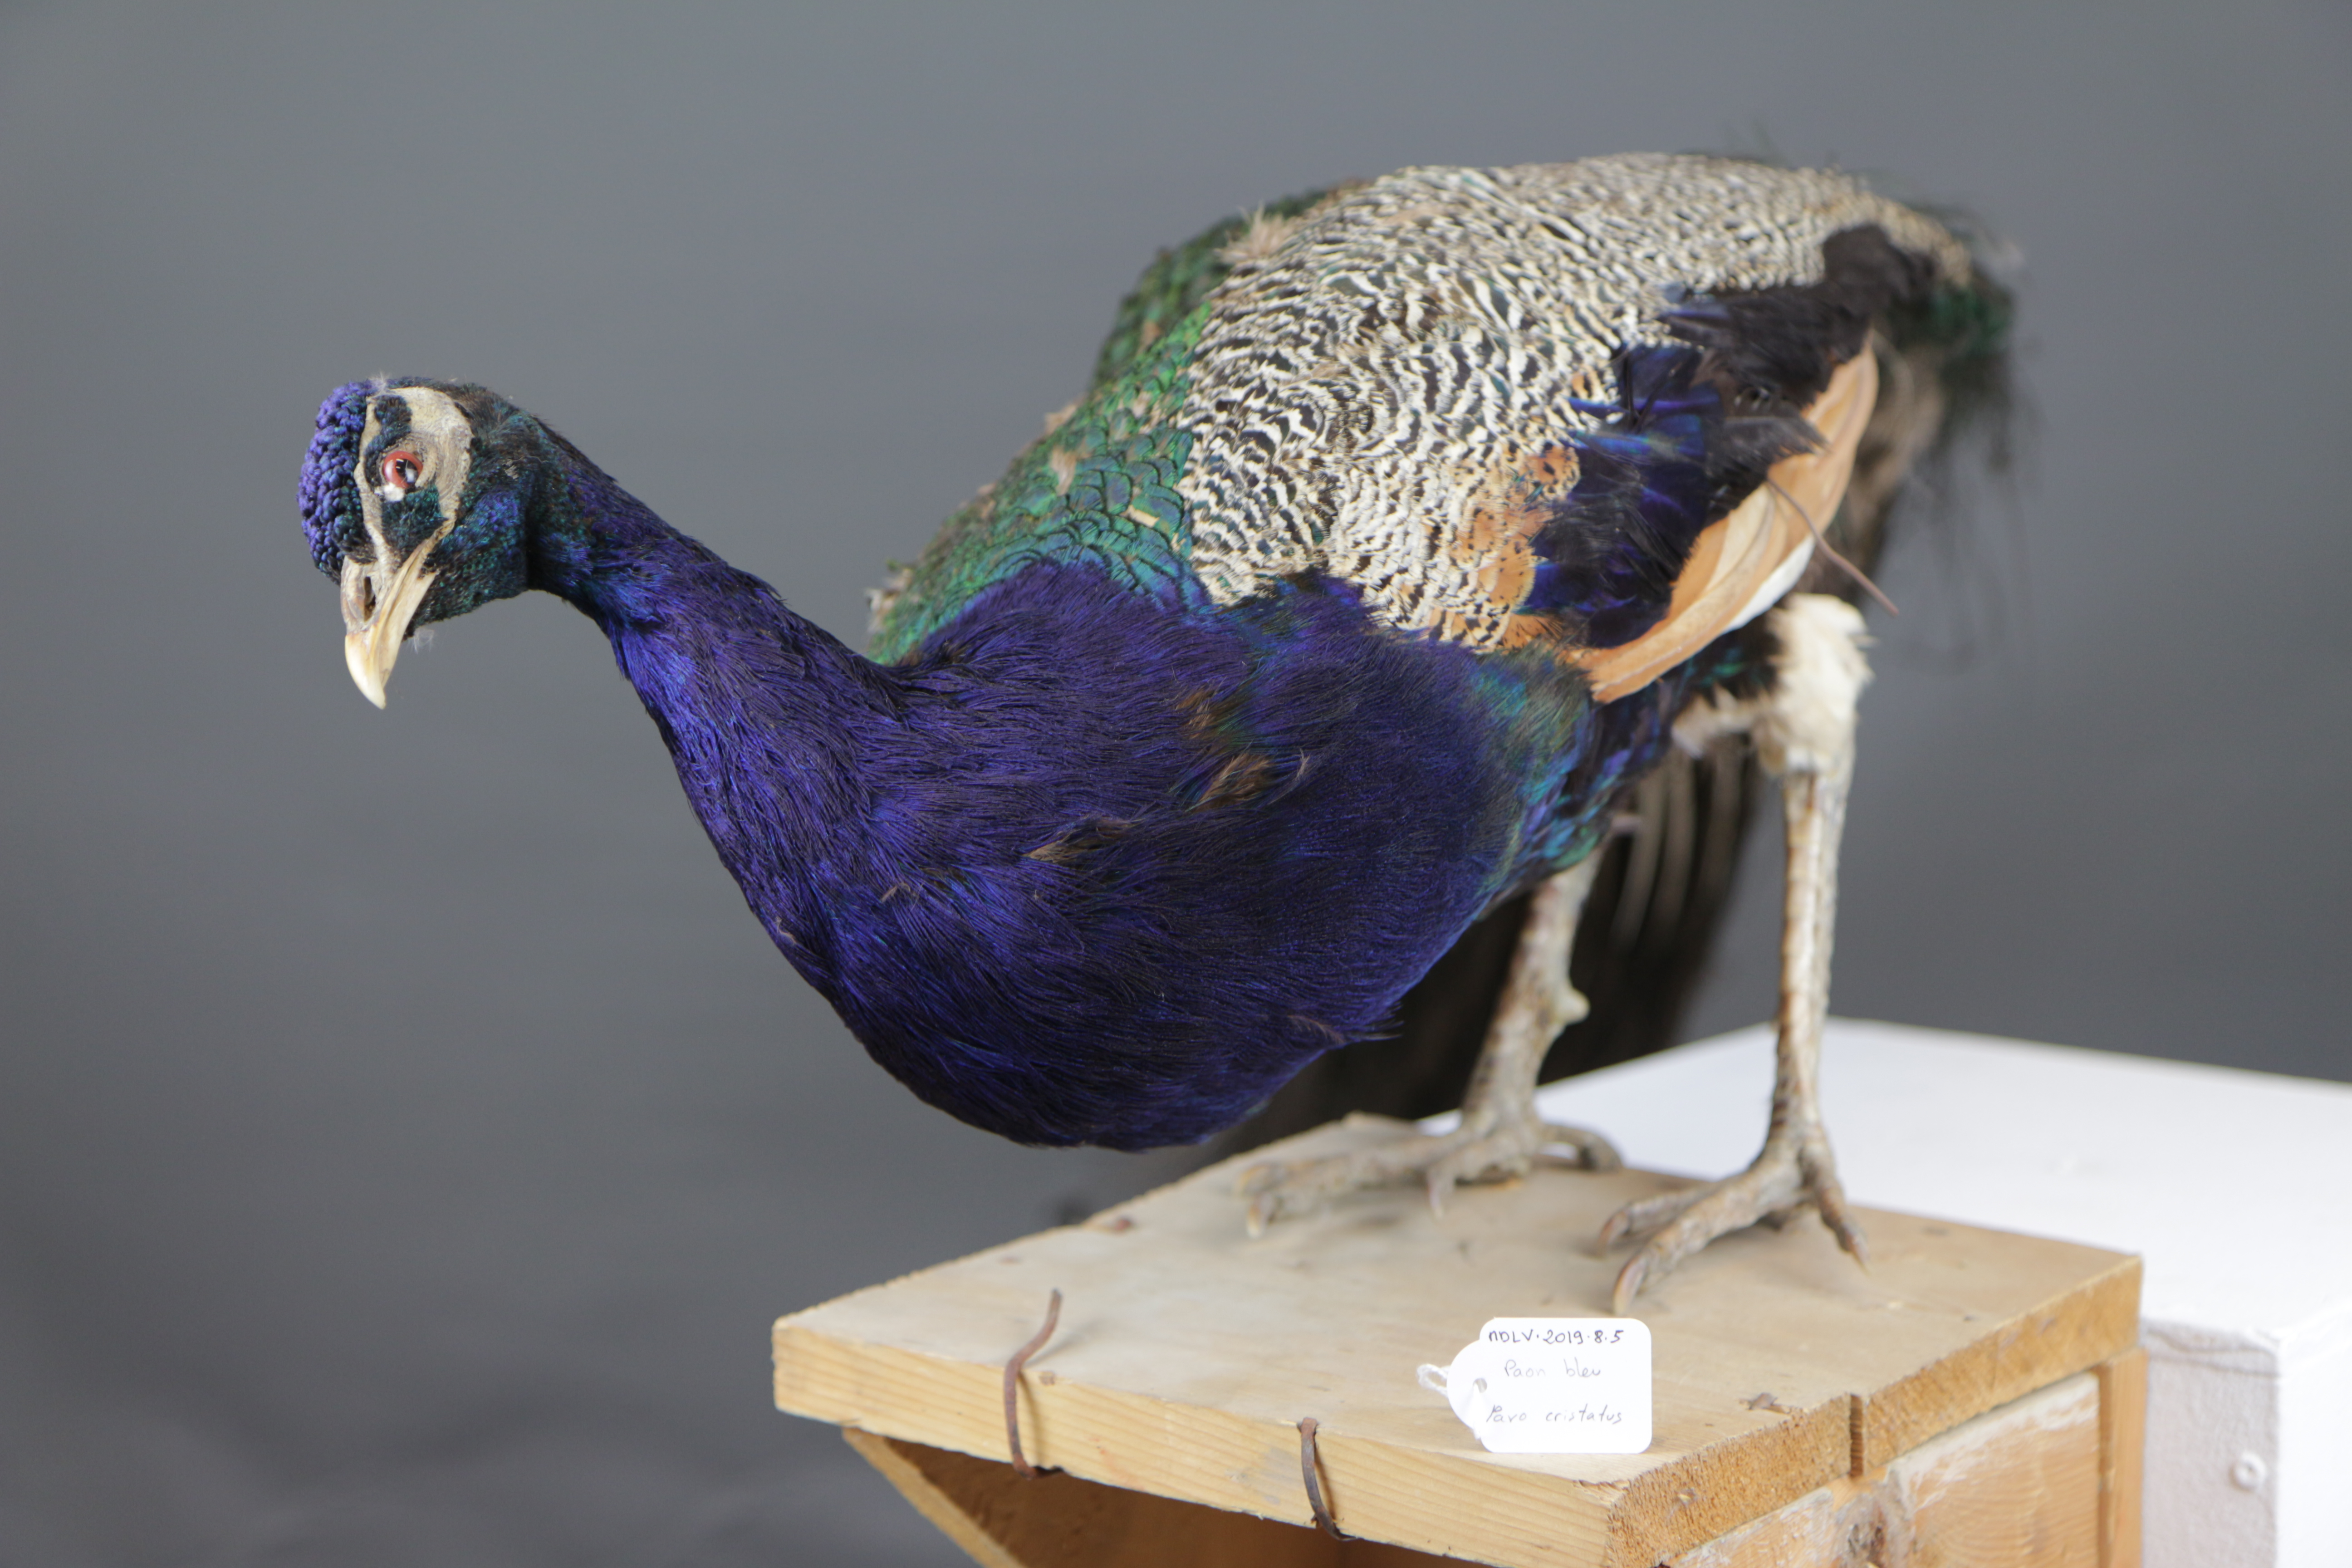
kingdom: Animalia
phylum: Chordata
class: Aves
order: Galliformes
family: Phasianidae
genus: Pavo
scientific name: Pavo cristatus
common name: Indian peafowl
